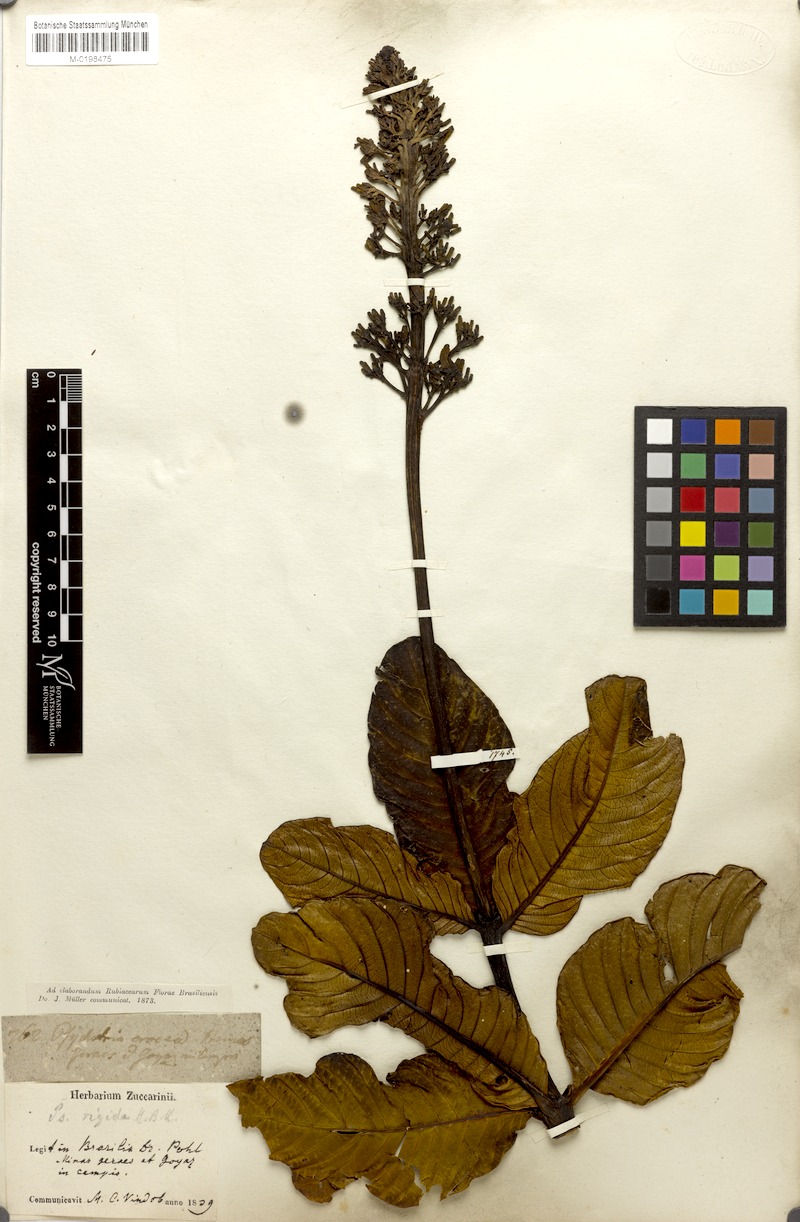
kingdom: Plantae
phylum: Tracheophyta
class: Magnoliopsida
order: Gentianales
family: Rubiaceae
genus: Palicourea
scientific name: Palicourea rigida
